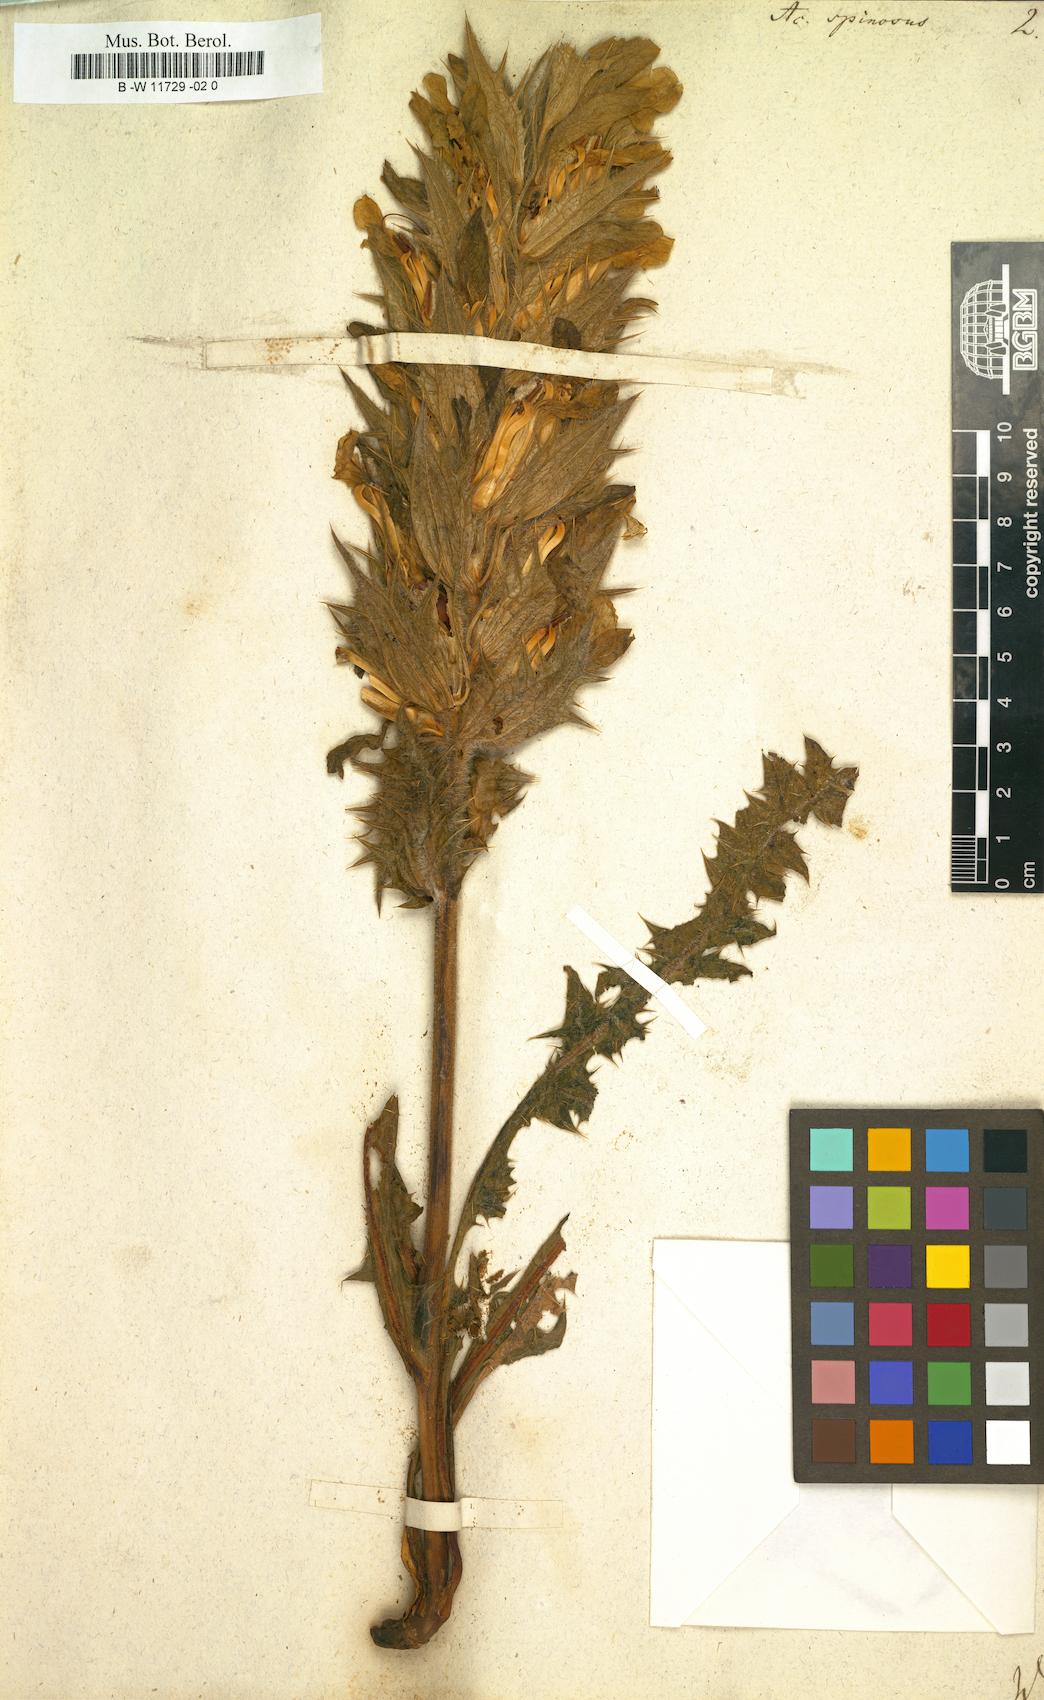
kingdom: Plantae
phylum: Tracheophyta
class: Magnoliopsida
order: Lamiales
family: Acanthaceae
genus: Acanthus
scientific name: Acanthus spinosus
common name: Spiny bear's-breech
